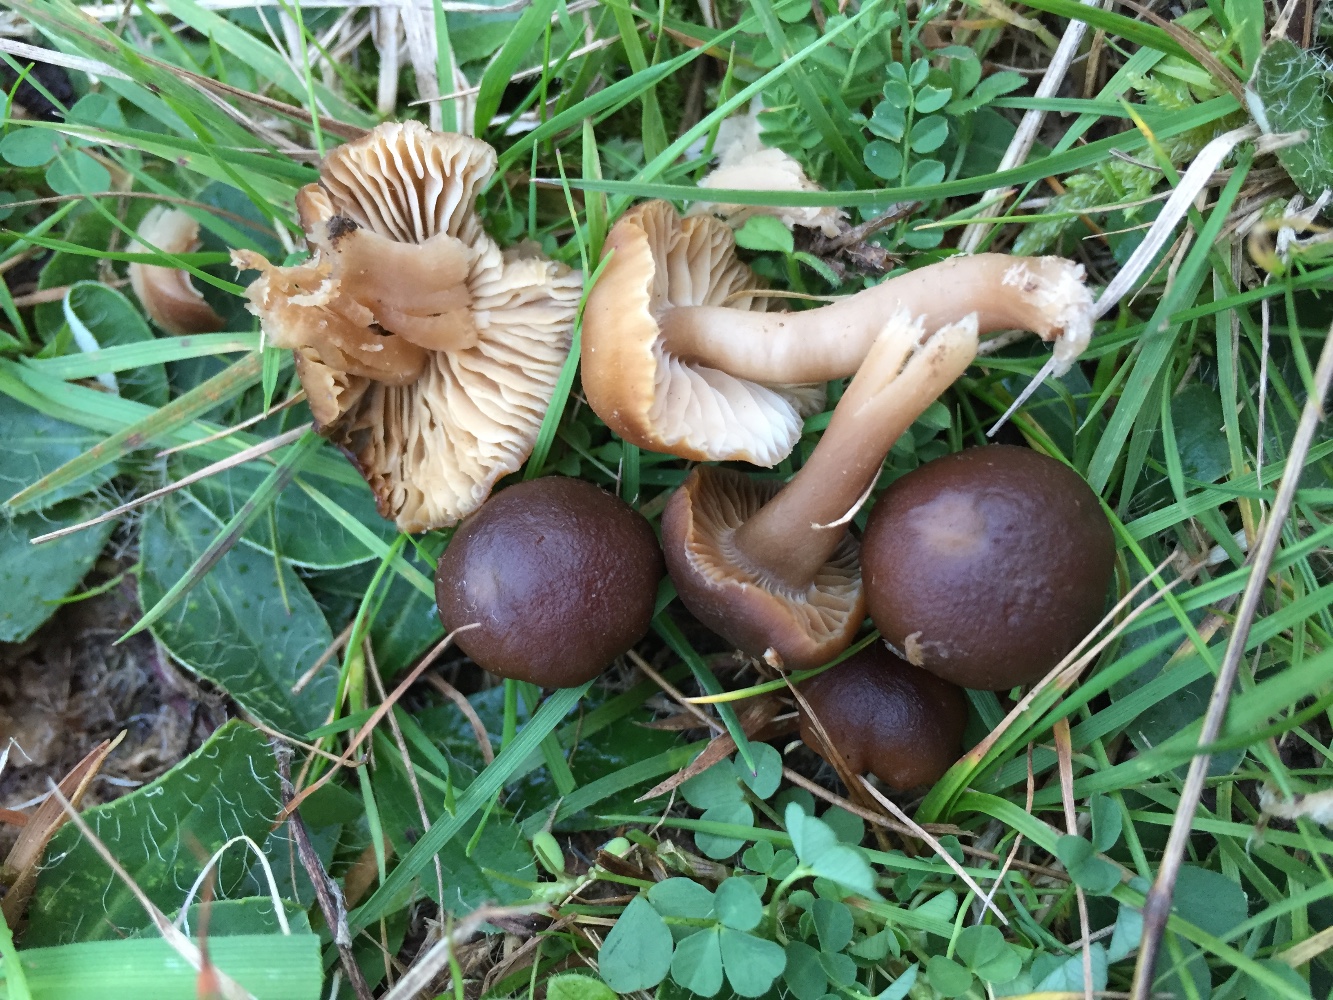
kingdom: Fungi
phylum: Basidiomycota
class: Agaricomycetes
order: Agaricales
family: Clavariaceae
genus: Camarophyllopsis
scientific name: Camarophyllopsis schulzeri
